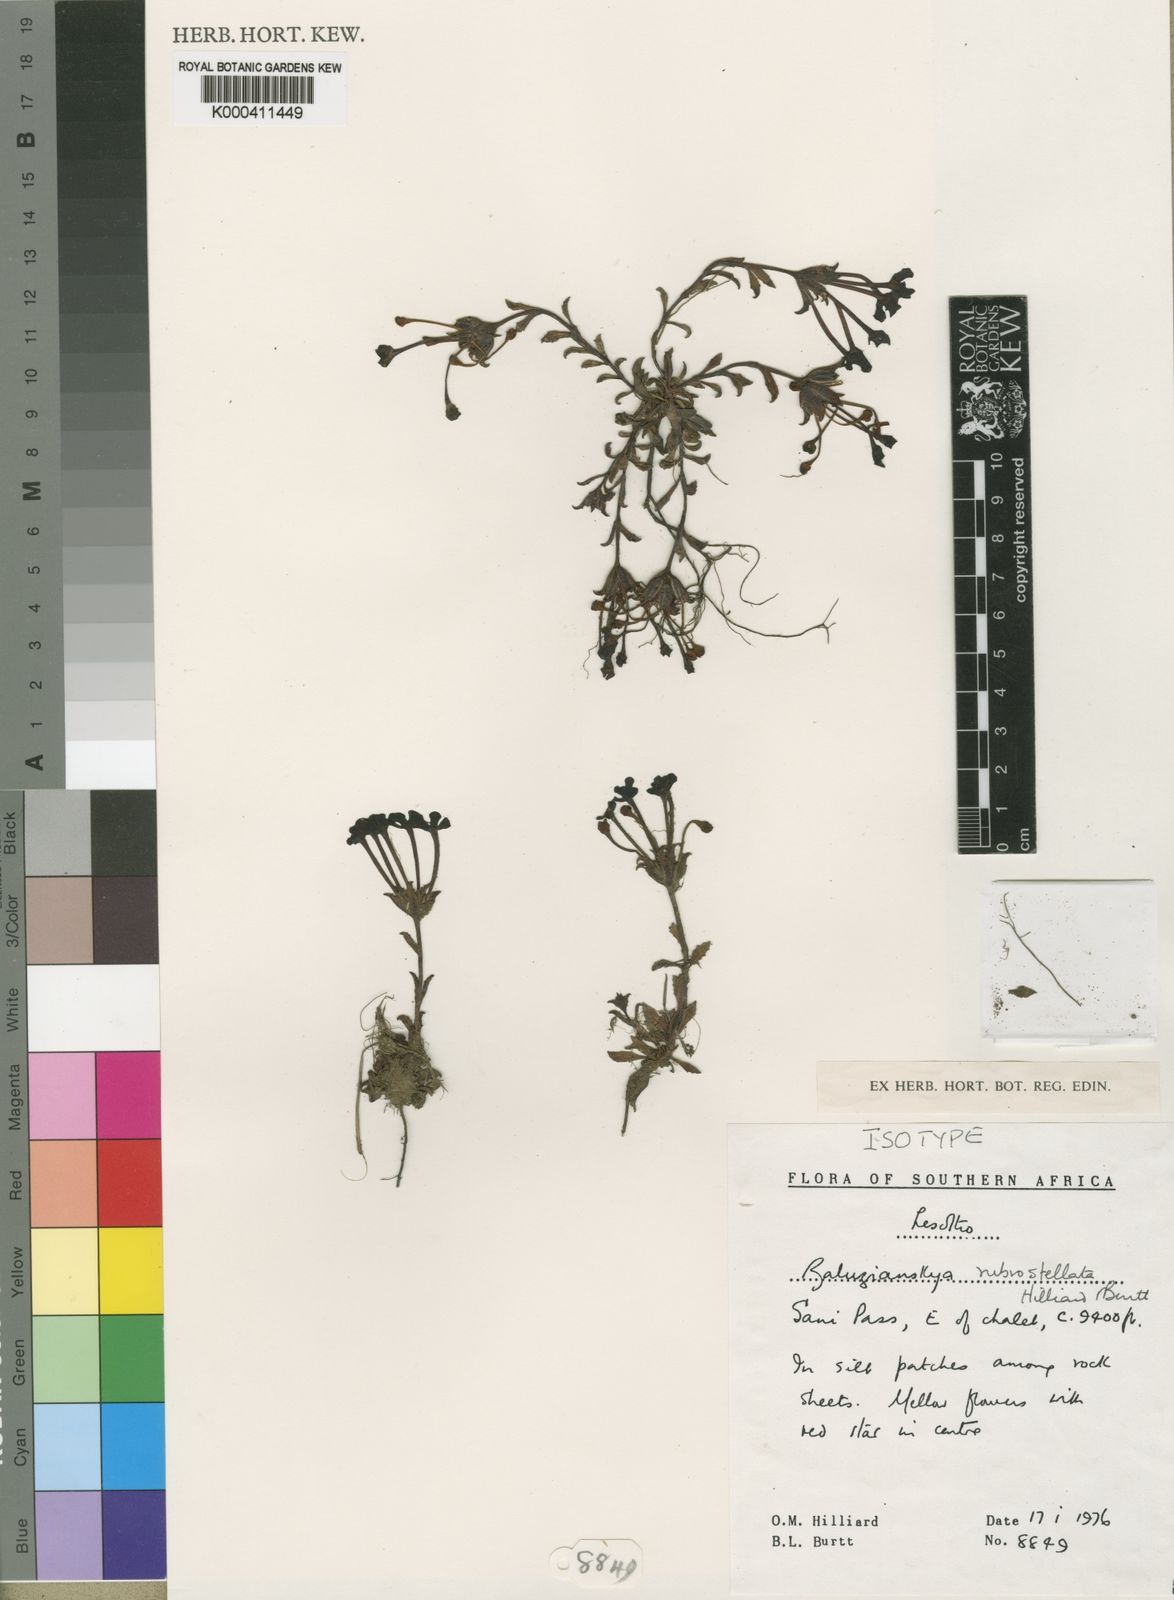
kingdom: Plantae
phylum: Tracheophyta
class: Magnoliopsida
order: Lamiales
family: Scrophulariaceae
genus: Zaluzianskya
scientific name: Zaluzianskya rubrostellata
